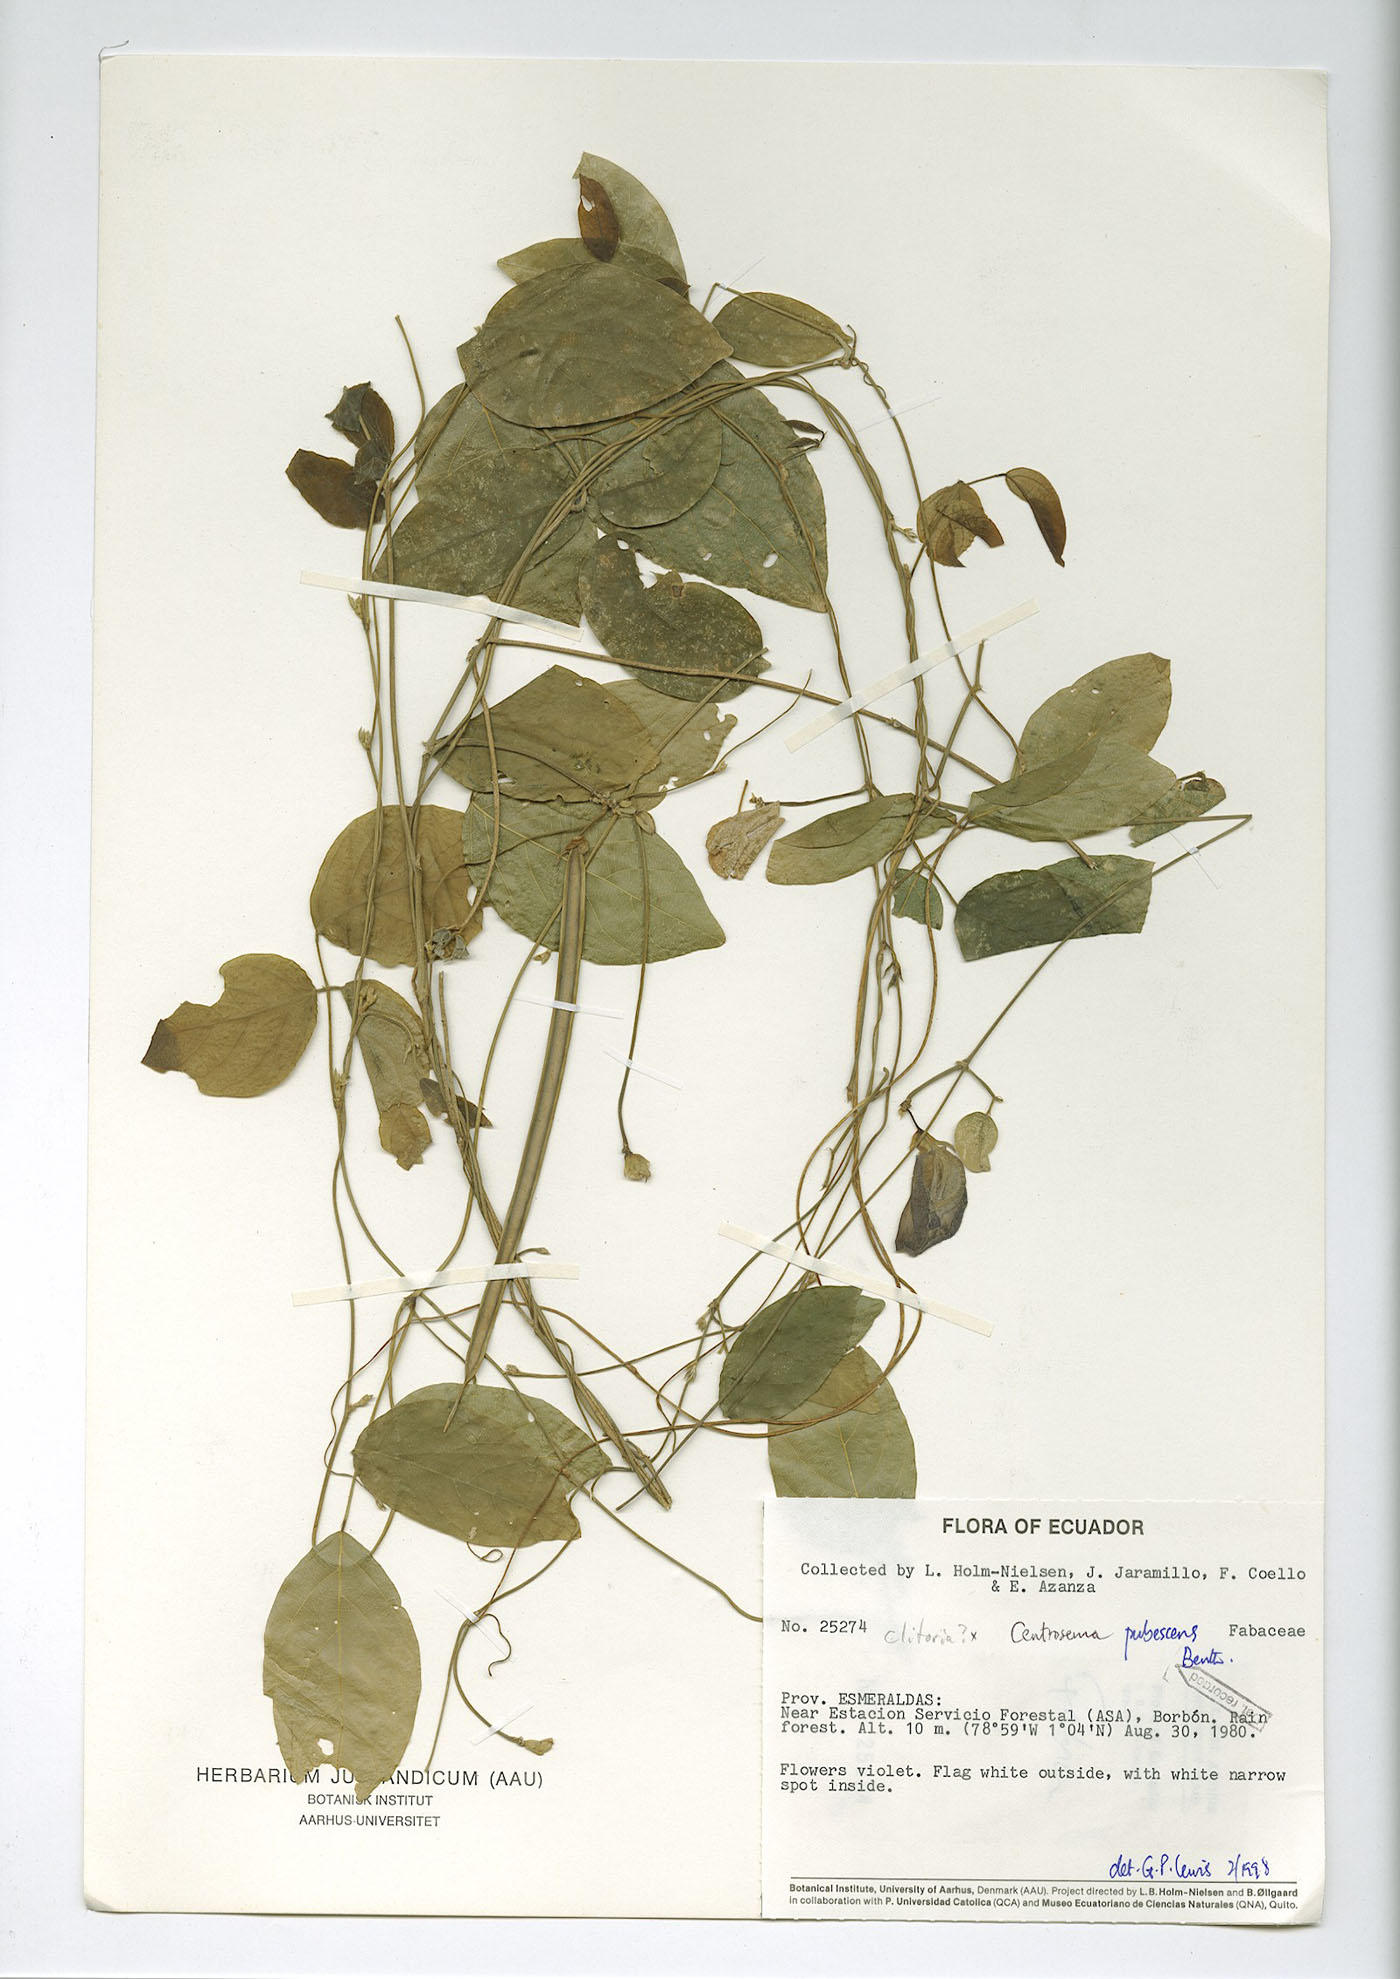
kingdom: Plantae
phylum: Tracheophyta
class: Magnoliopsida
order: Fabales
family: Fabaceae
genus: Centrosema
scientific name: Centrosema molle
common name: Soft butterfly pea
